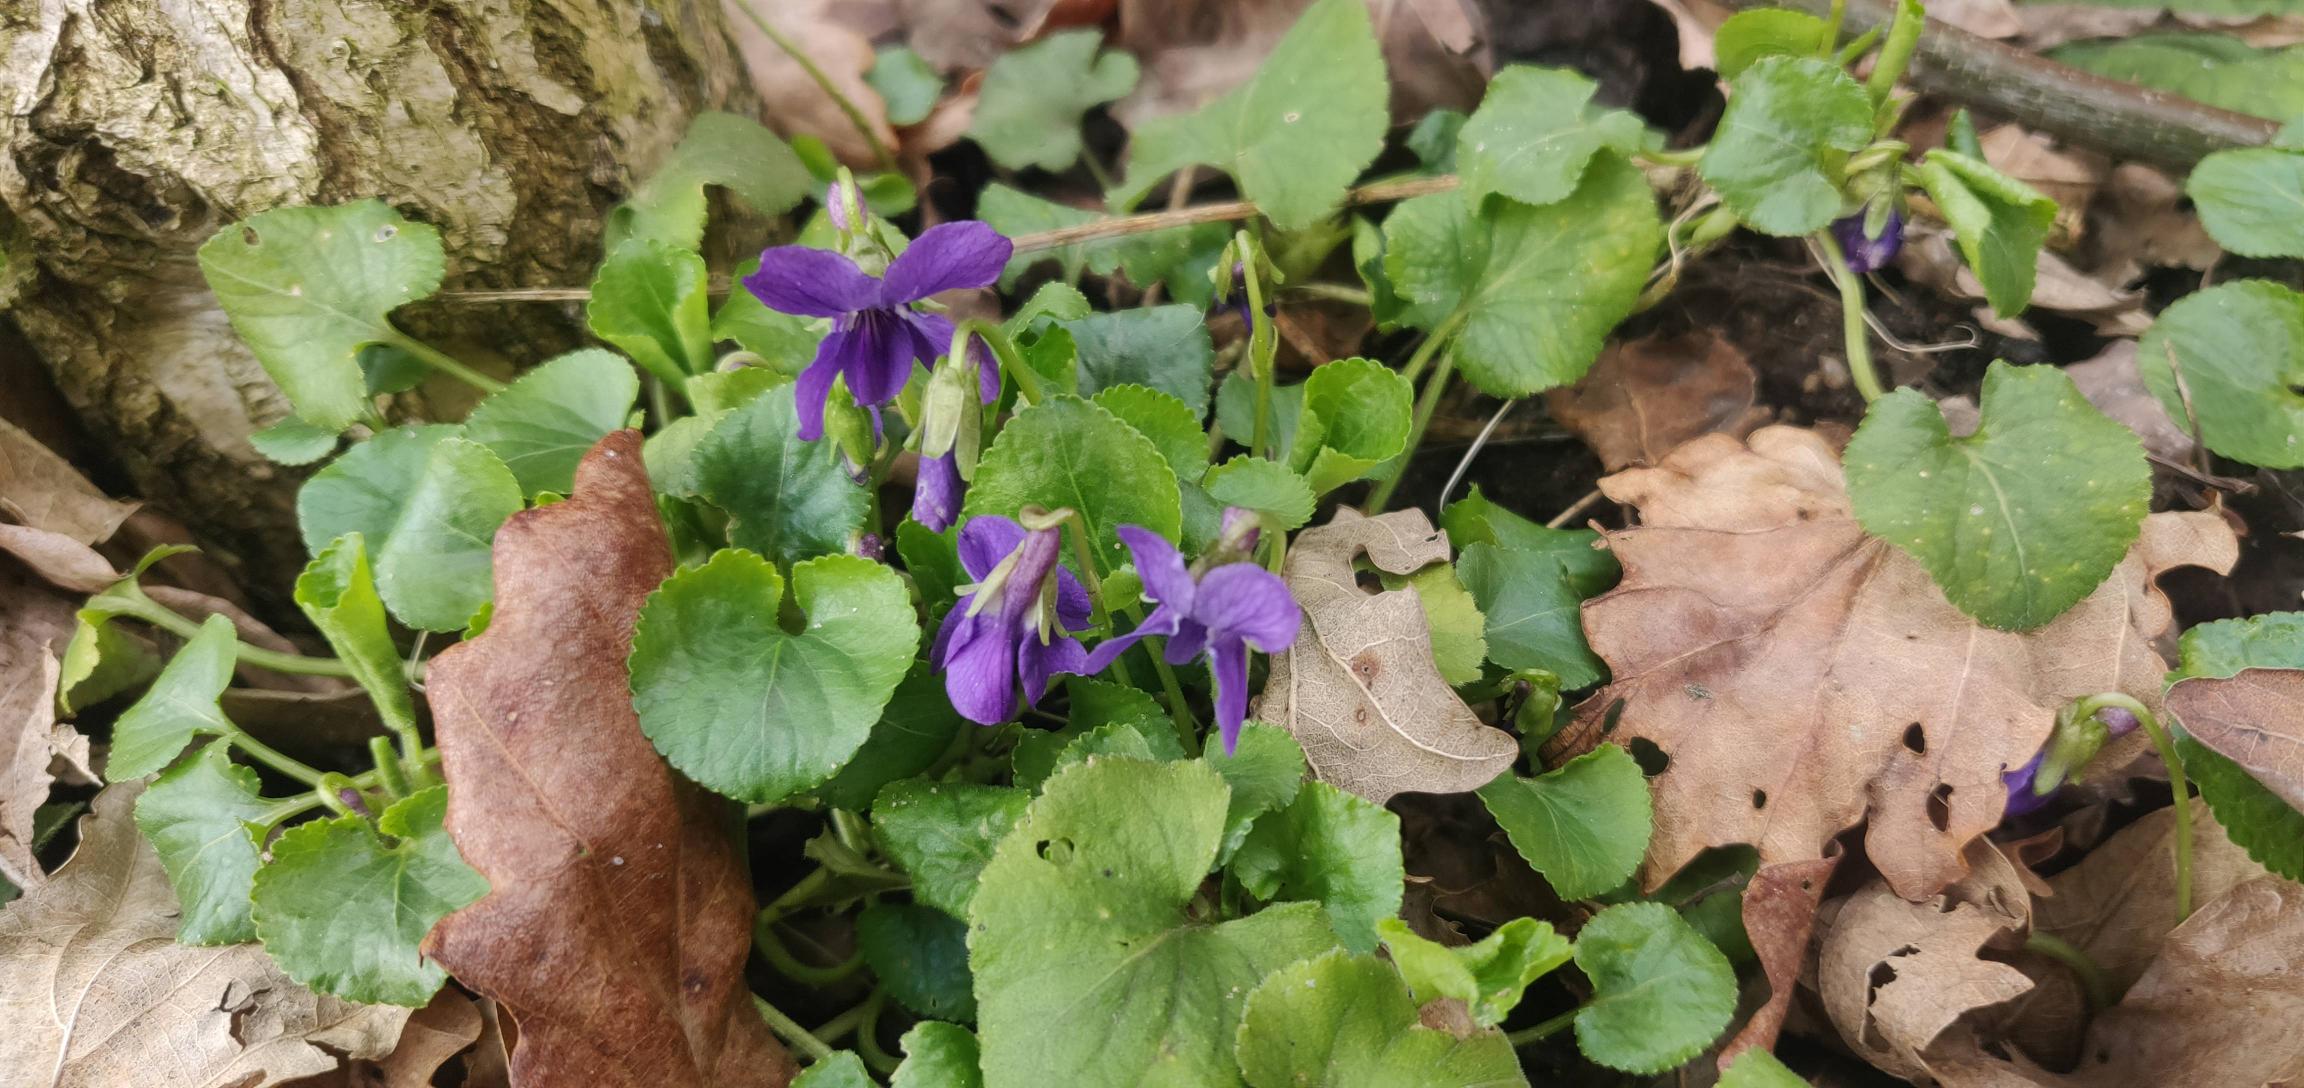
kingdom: Plantae
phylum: Tracheophyta
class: Magnoliopsida
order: Malpighiales
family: Violaceae
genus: Viola
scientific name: Viola odorata
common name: Marts-viol
